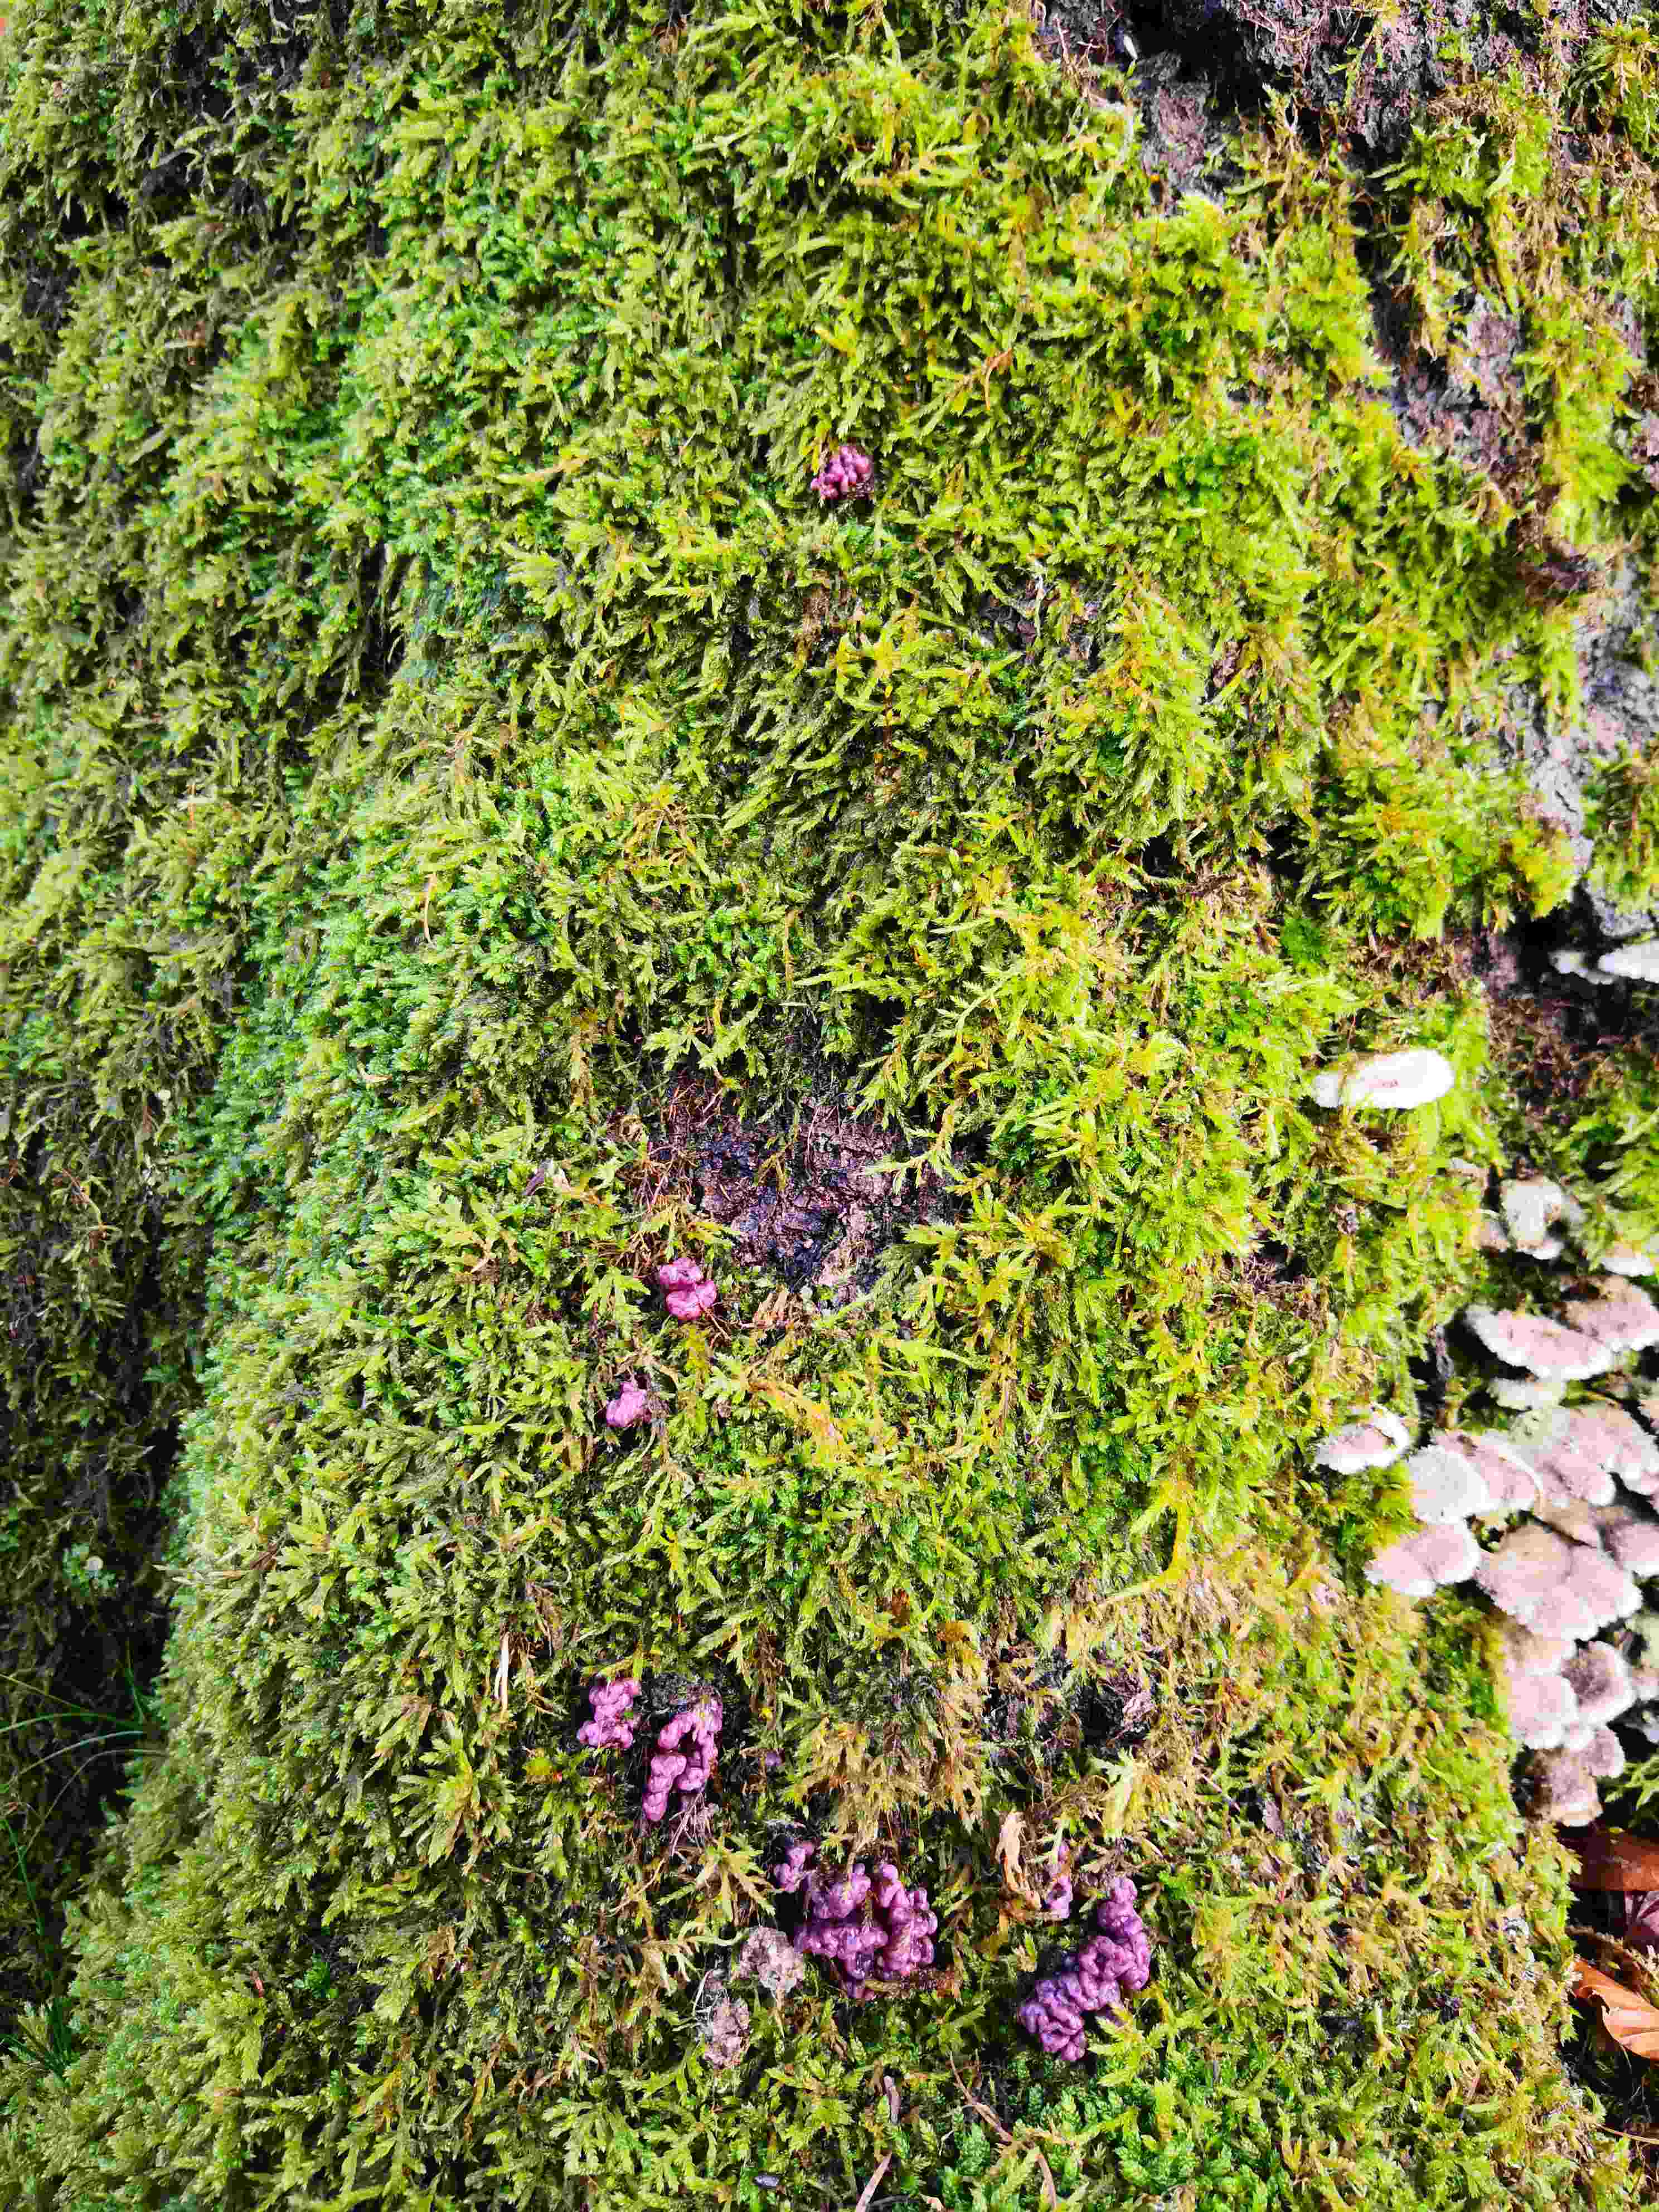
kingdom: Fungi
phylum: Ascomycota
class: Leotiomycetes
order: Helotiales
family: Gelatinodiscaceae
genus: Ascocoryne
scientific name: Ascocoryne sarcoides
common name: rødlilla sejskive
